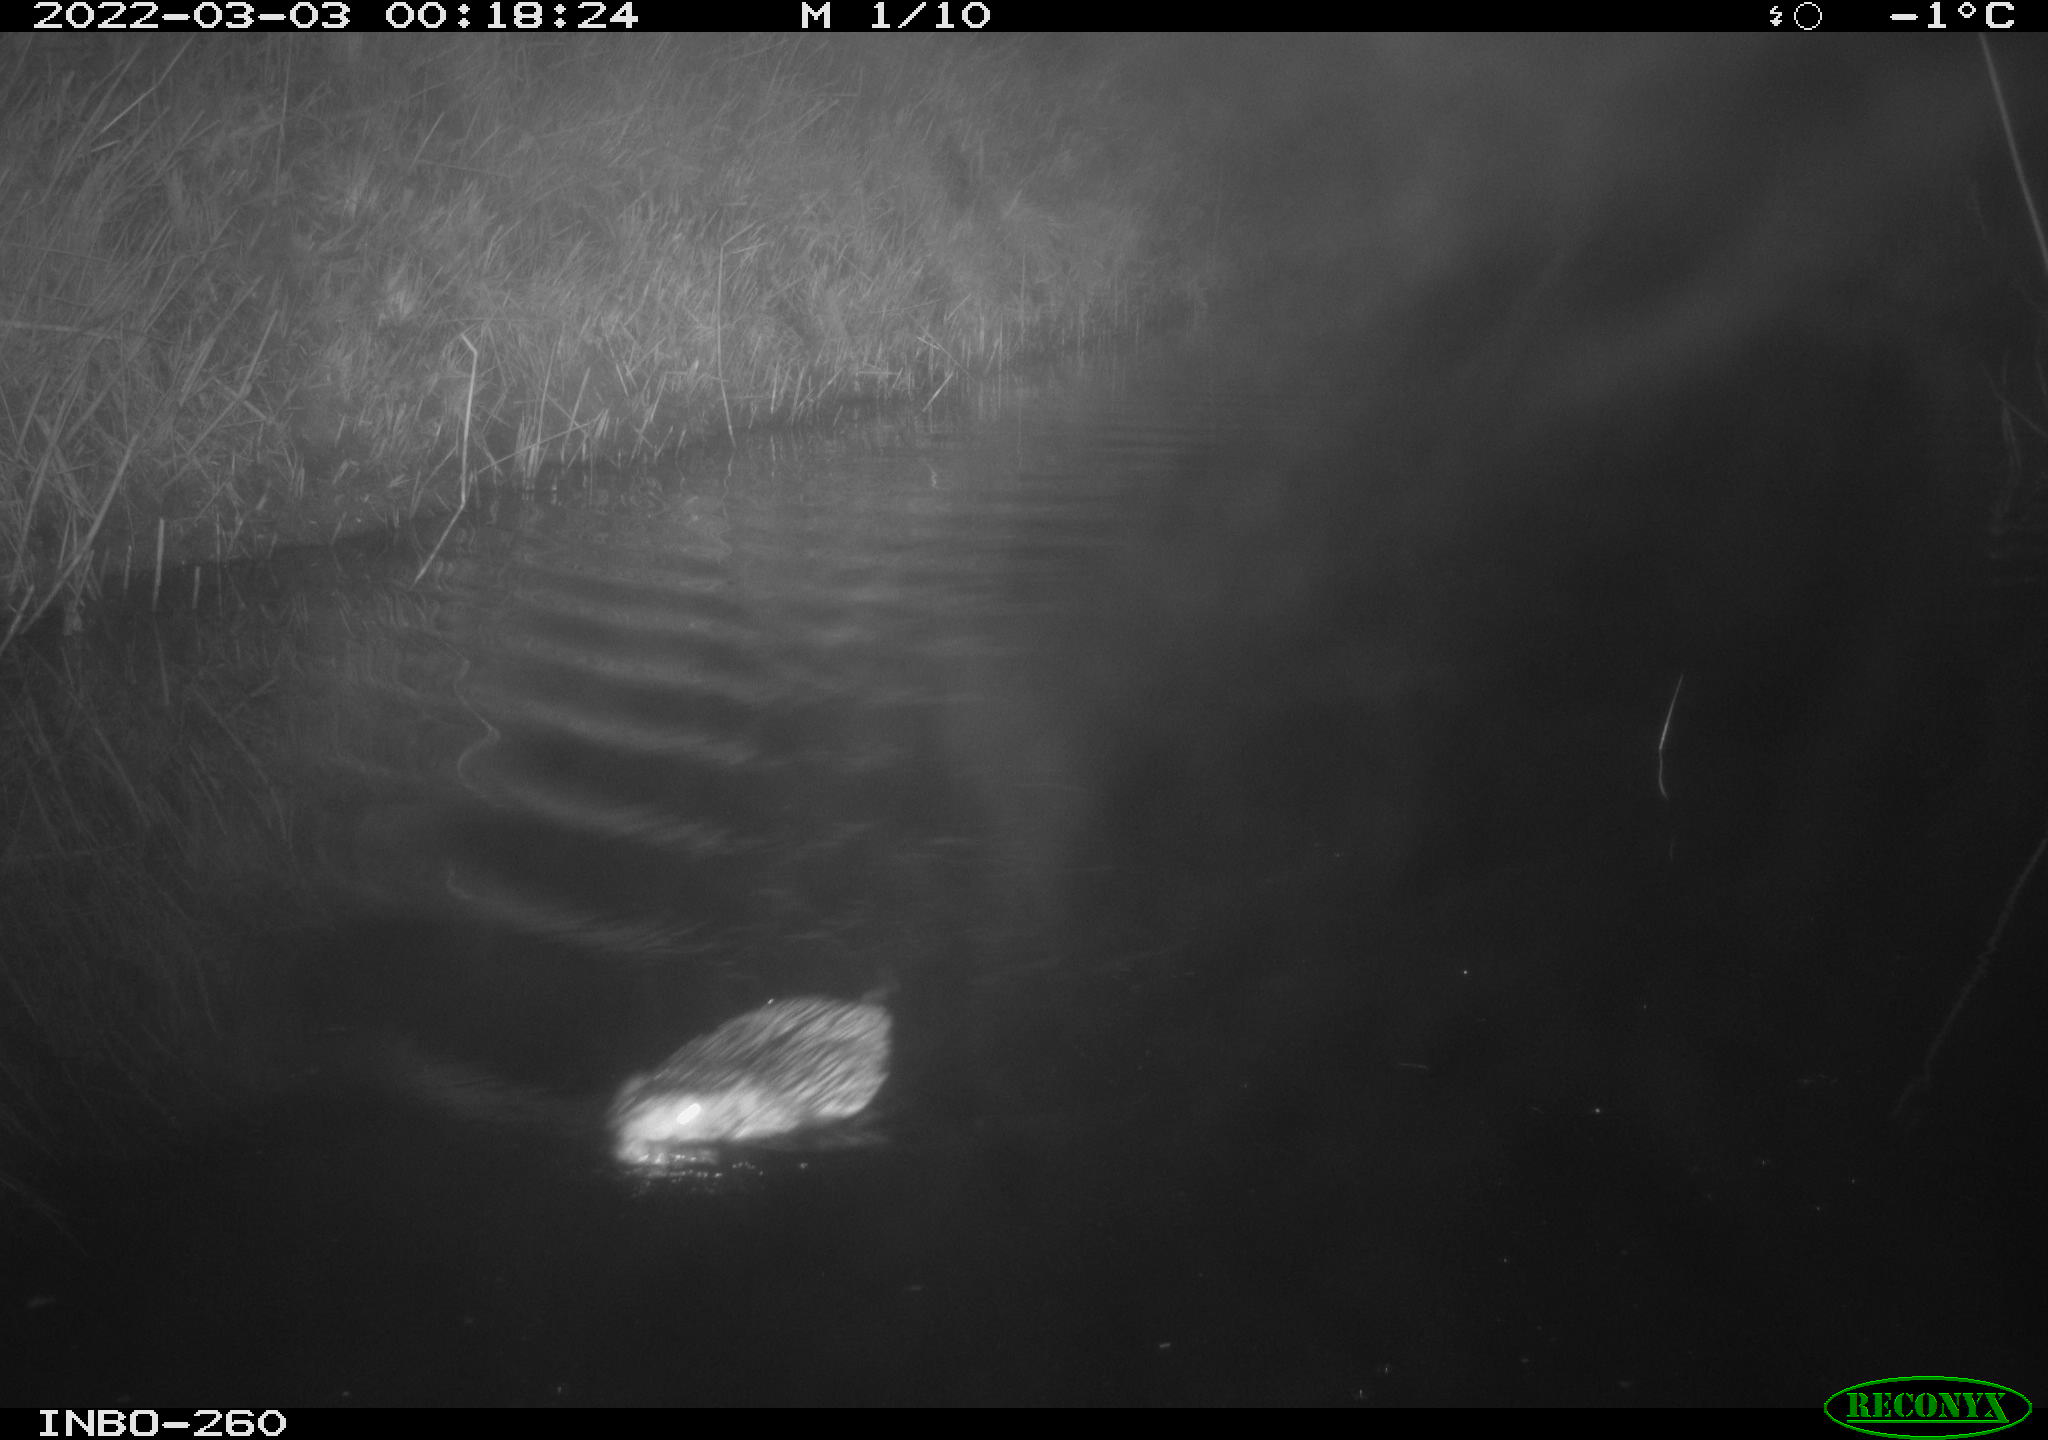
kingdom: Animalia
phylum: Chordata
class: Mammalia
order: Rodentia
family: Cricetidae
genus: Ondatra
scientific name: Ondatra zibethicus
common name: Muskrat
